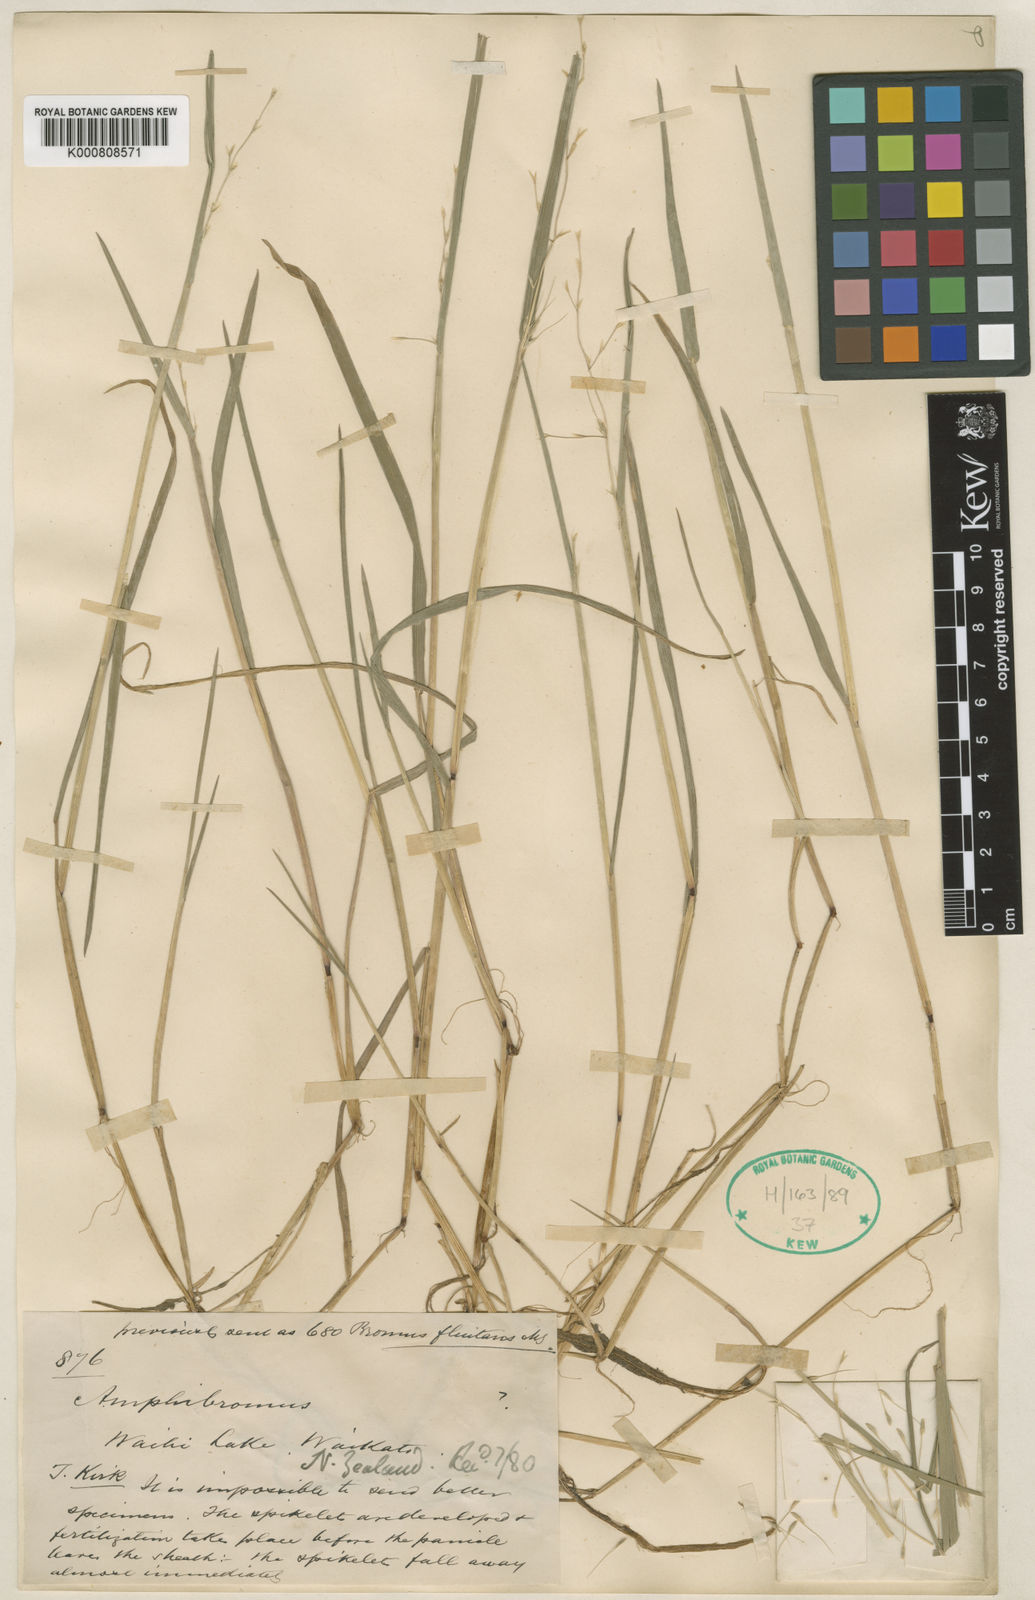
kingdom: Plantae
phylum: Tracheophyta
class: Liliopsida
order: Poales
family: Poaceae
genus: Helictotrichon
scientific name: Helictotrichon
